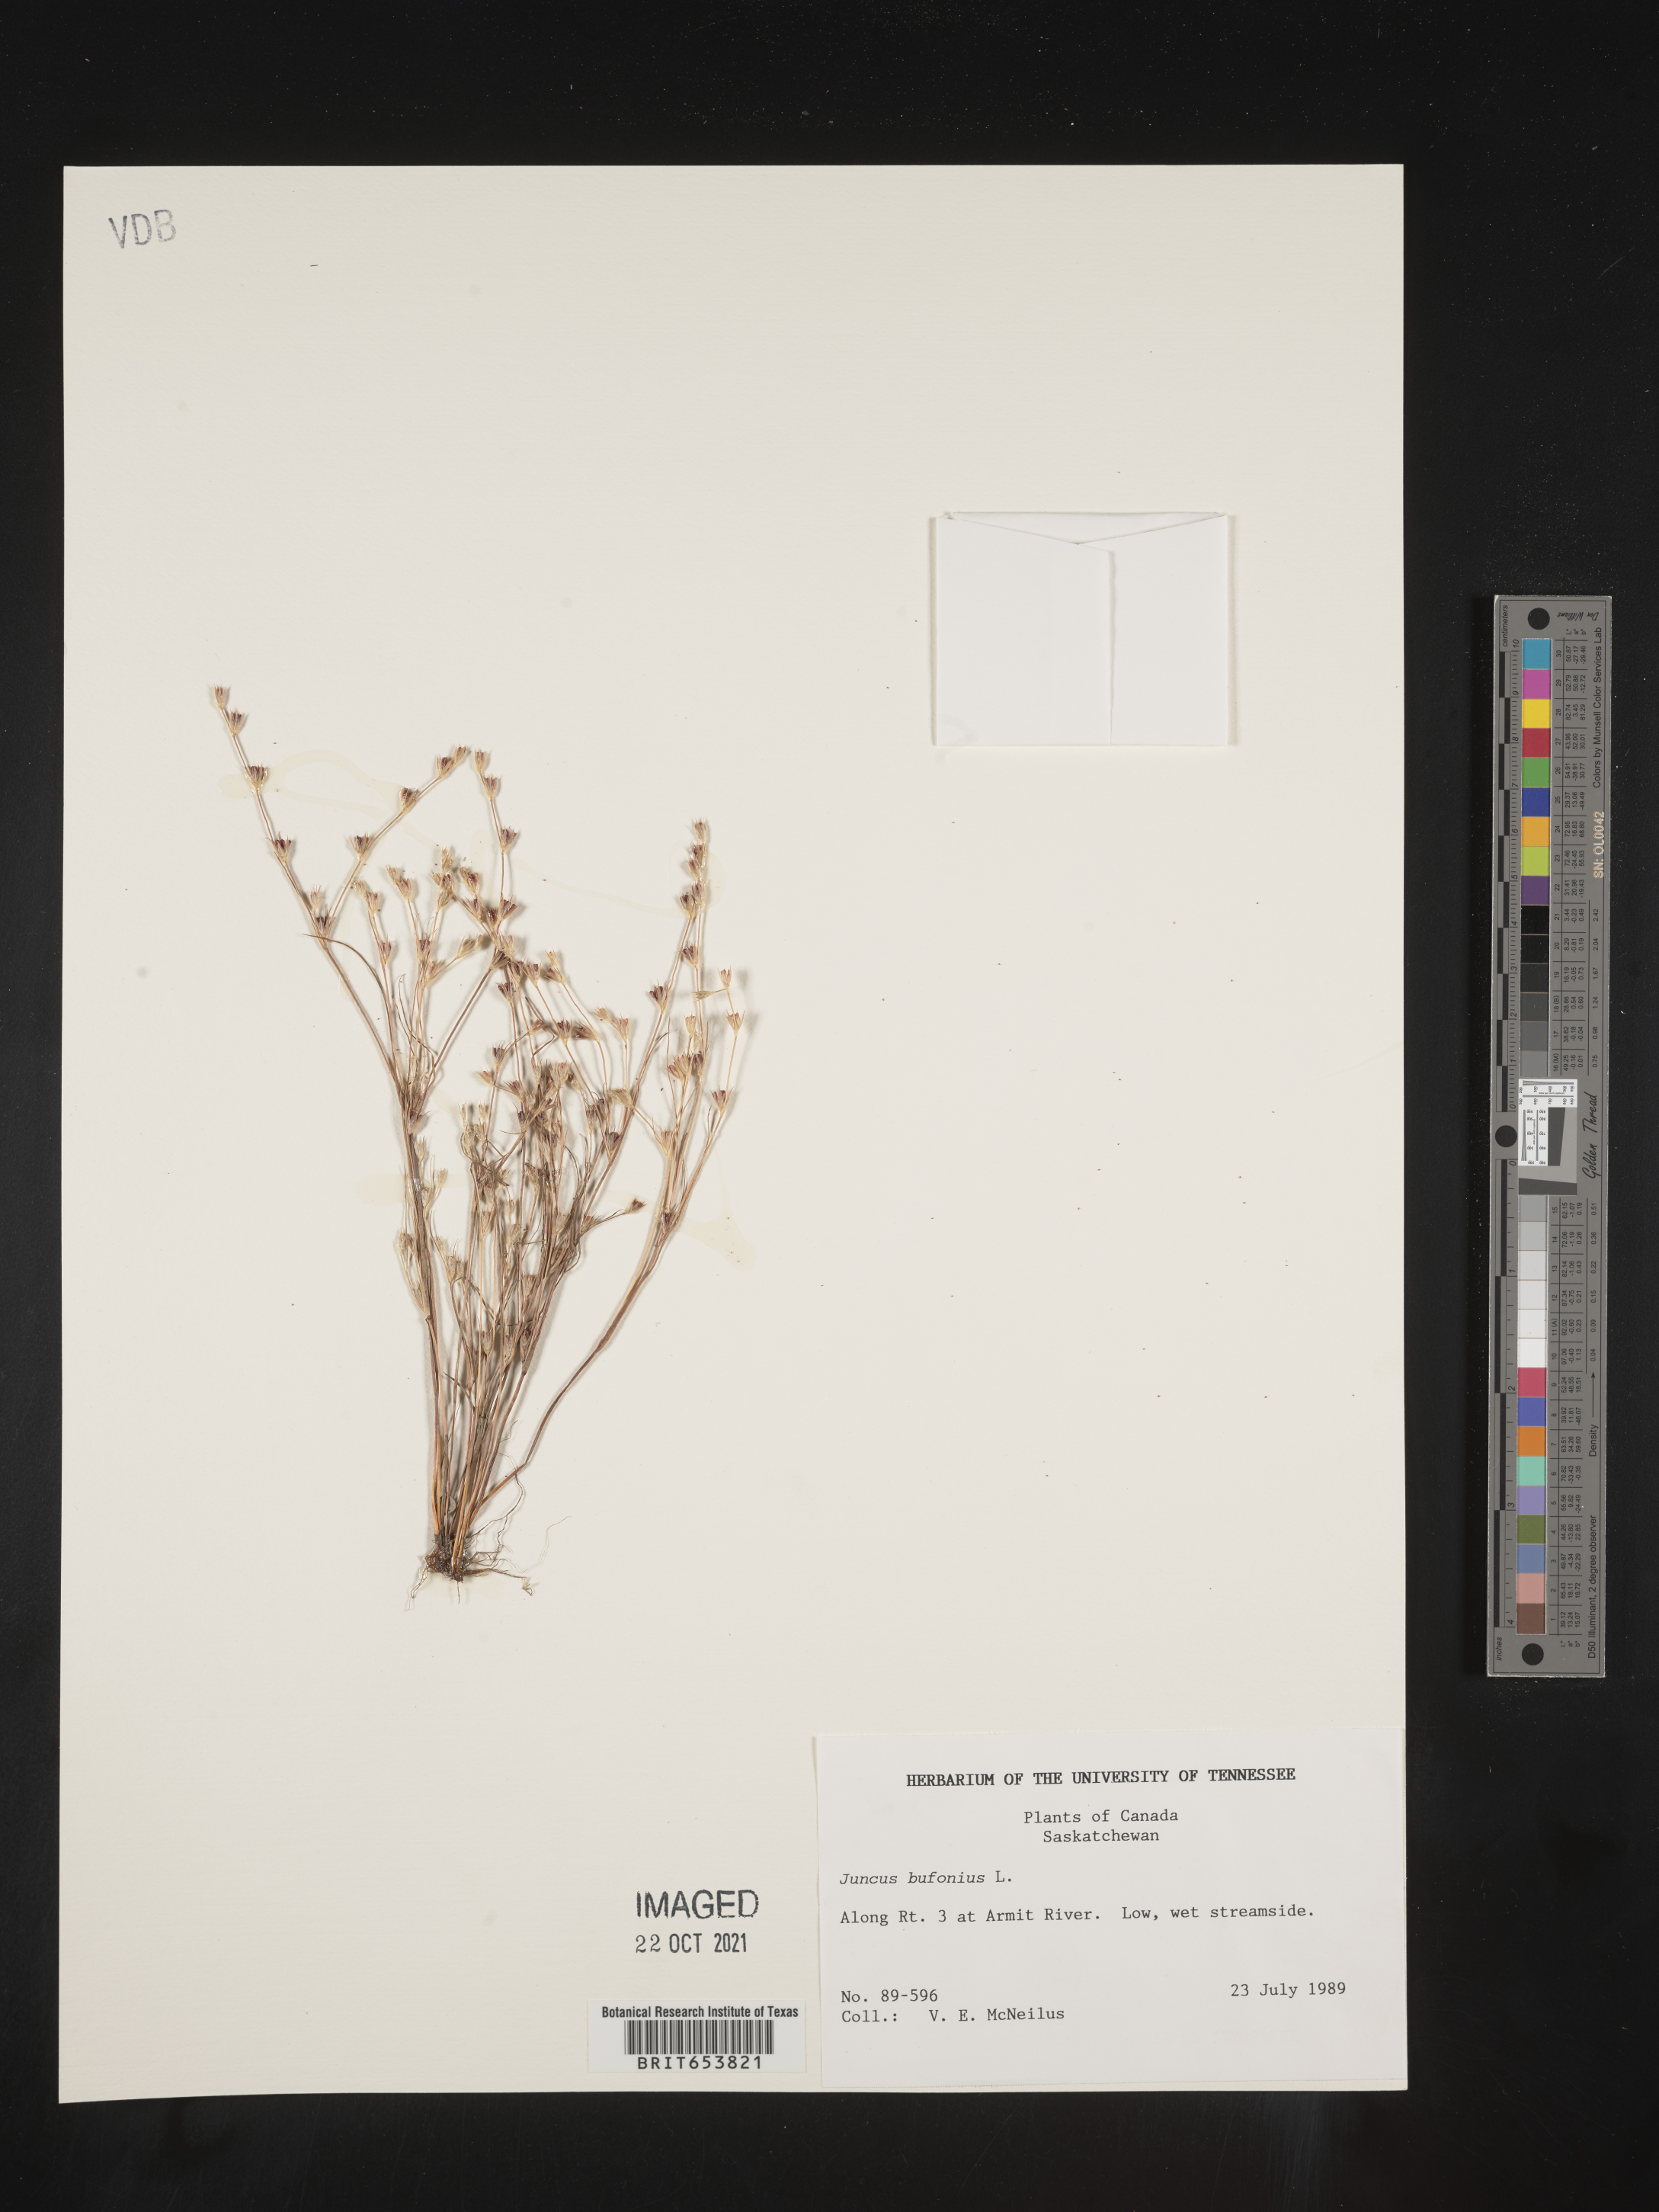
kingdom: Plantae
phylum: Tracheophyta
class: Liliopsida
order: Poales
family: Juncaceae
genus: Juncus
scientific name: Juncus bufonius
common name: Toad rush
